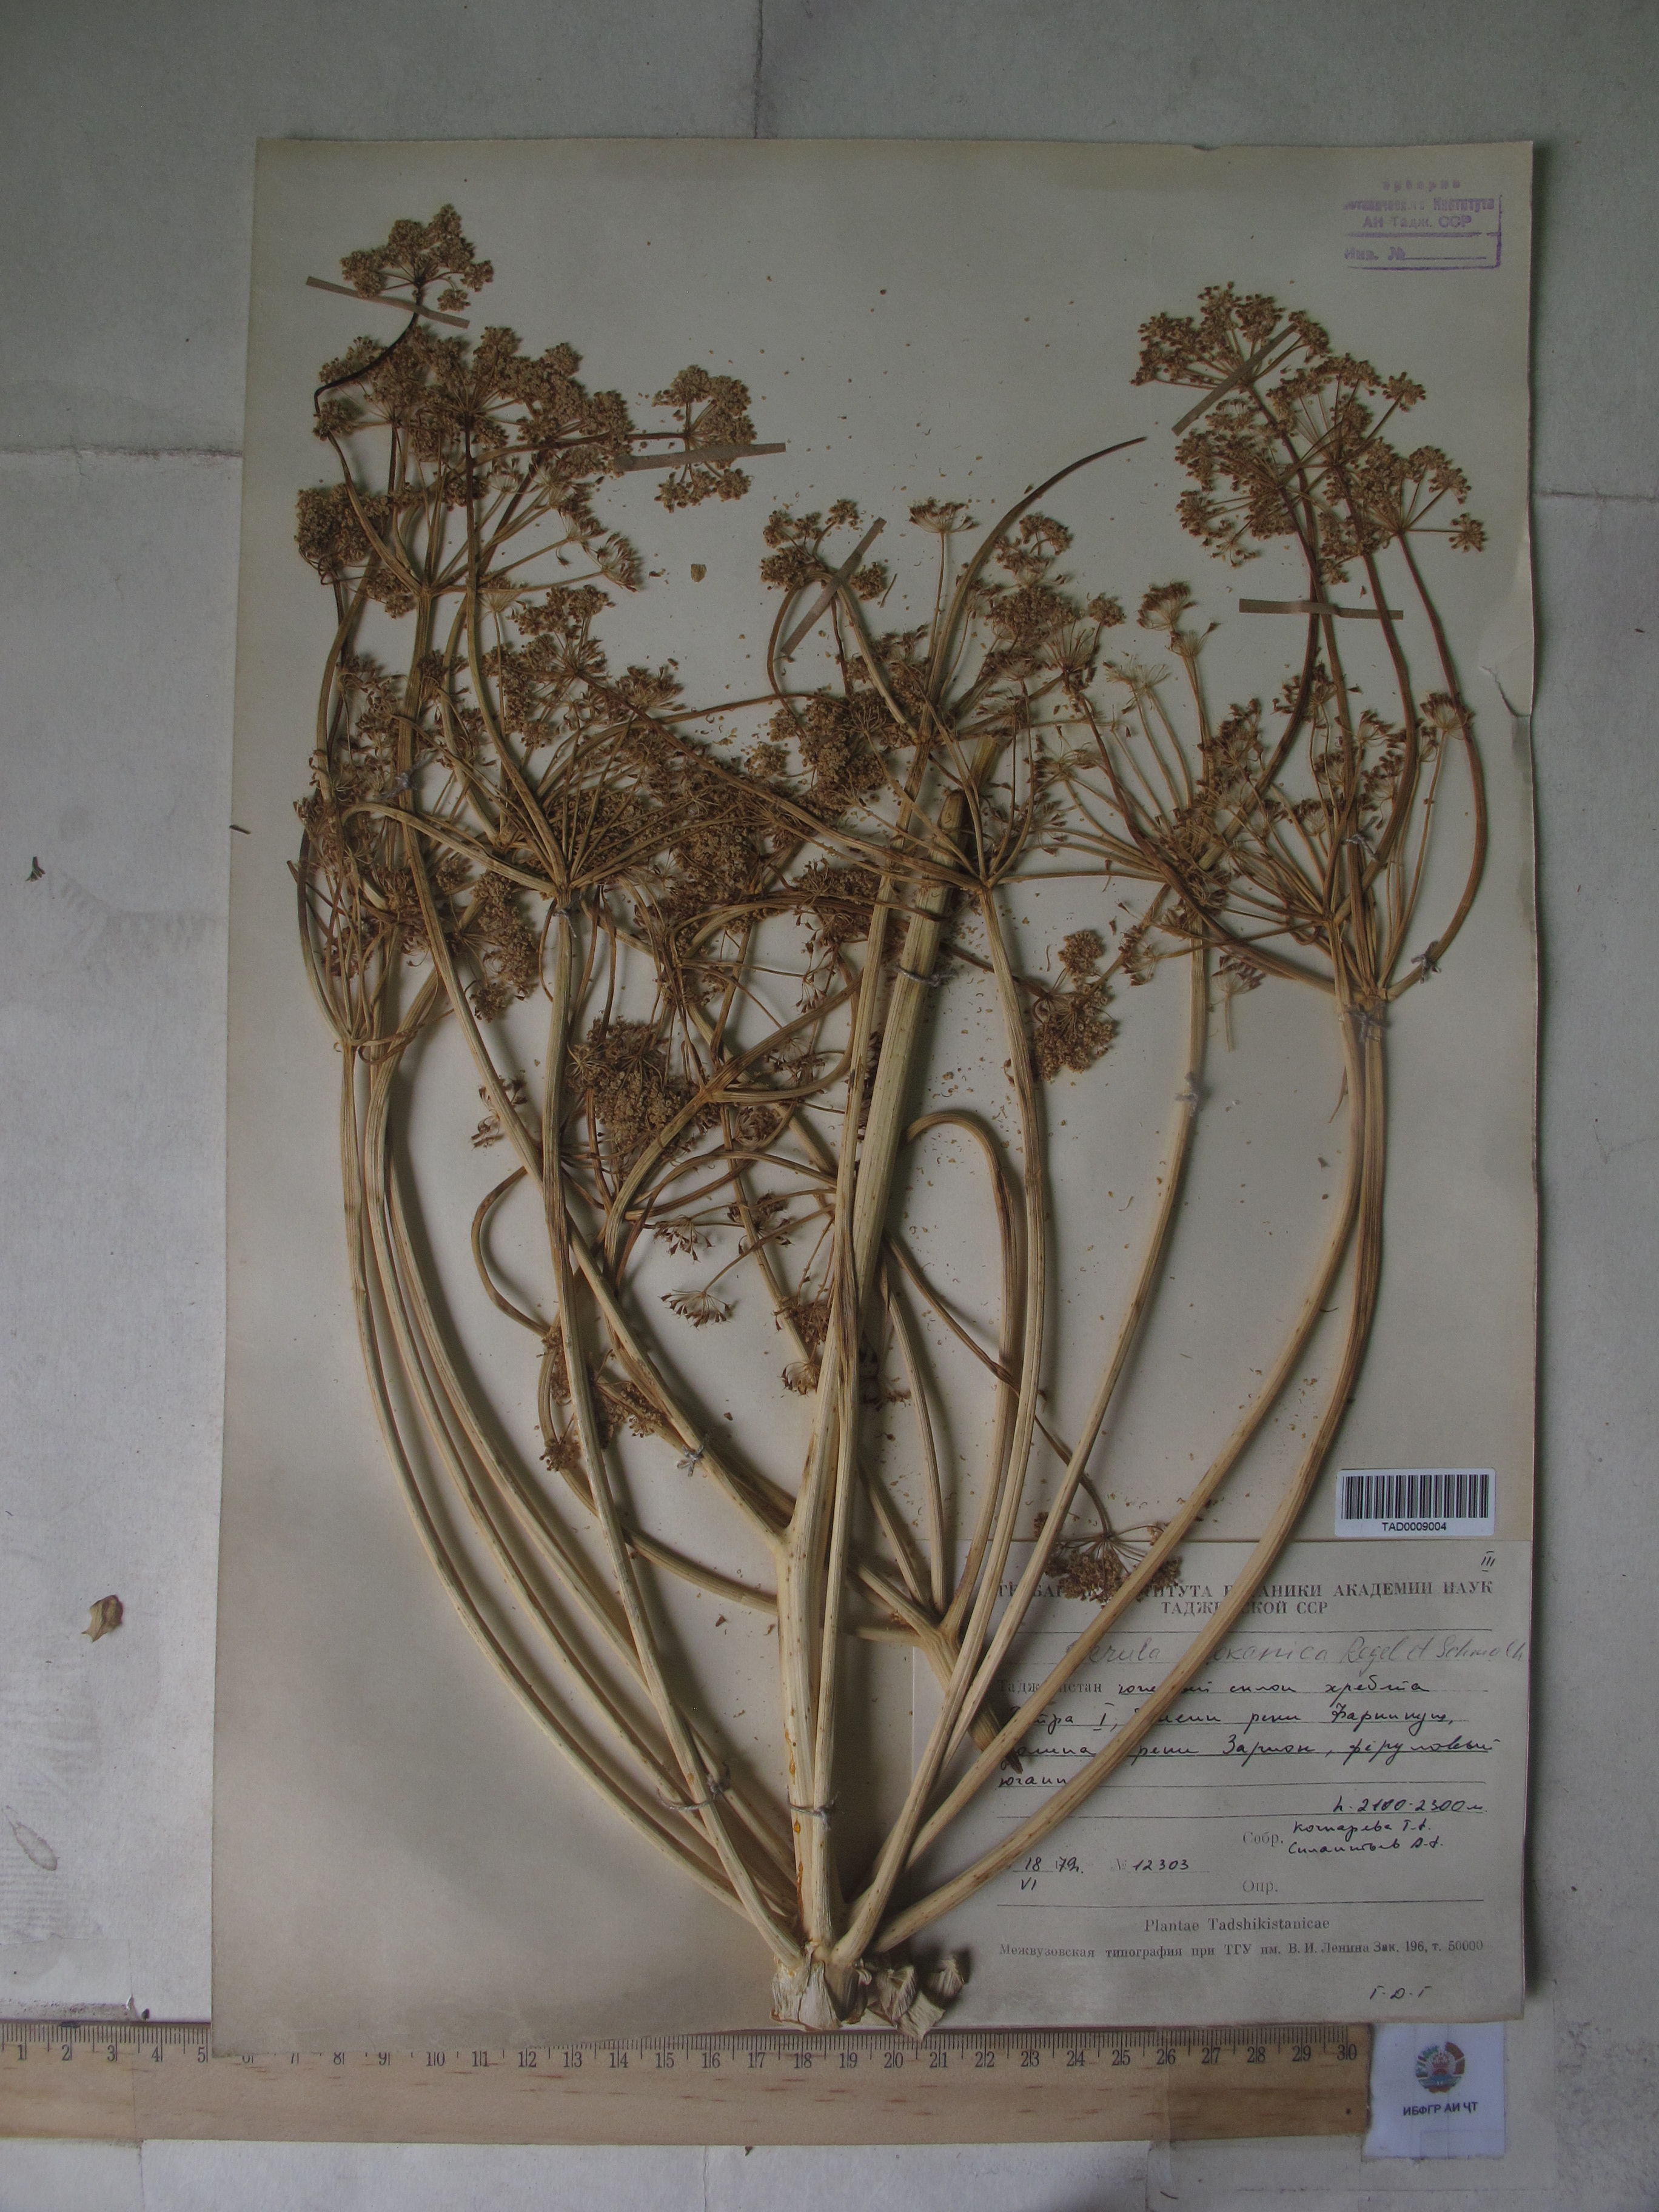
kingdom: Plantae
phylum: Tracheophyta
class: Magnoliopsida
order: Apiales
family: Apiaceae
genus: Ferula
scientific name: Ferula kokanica
